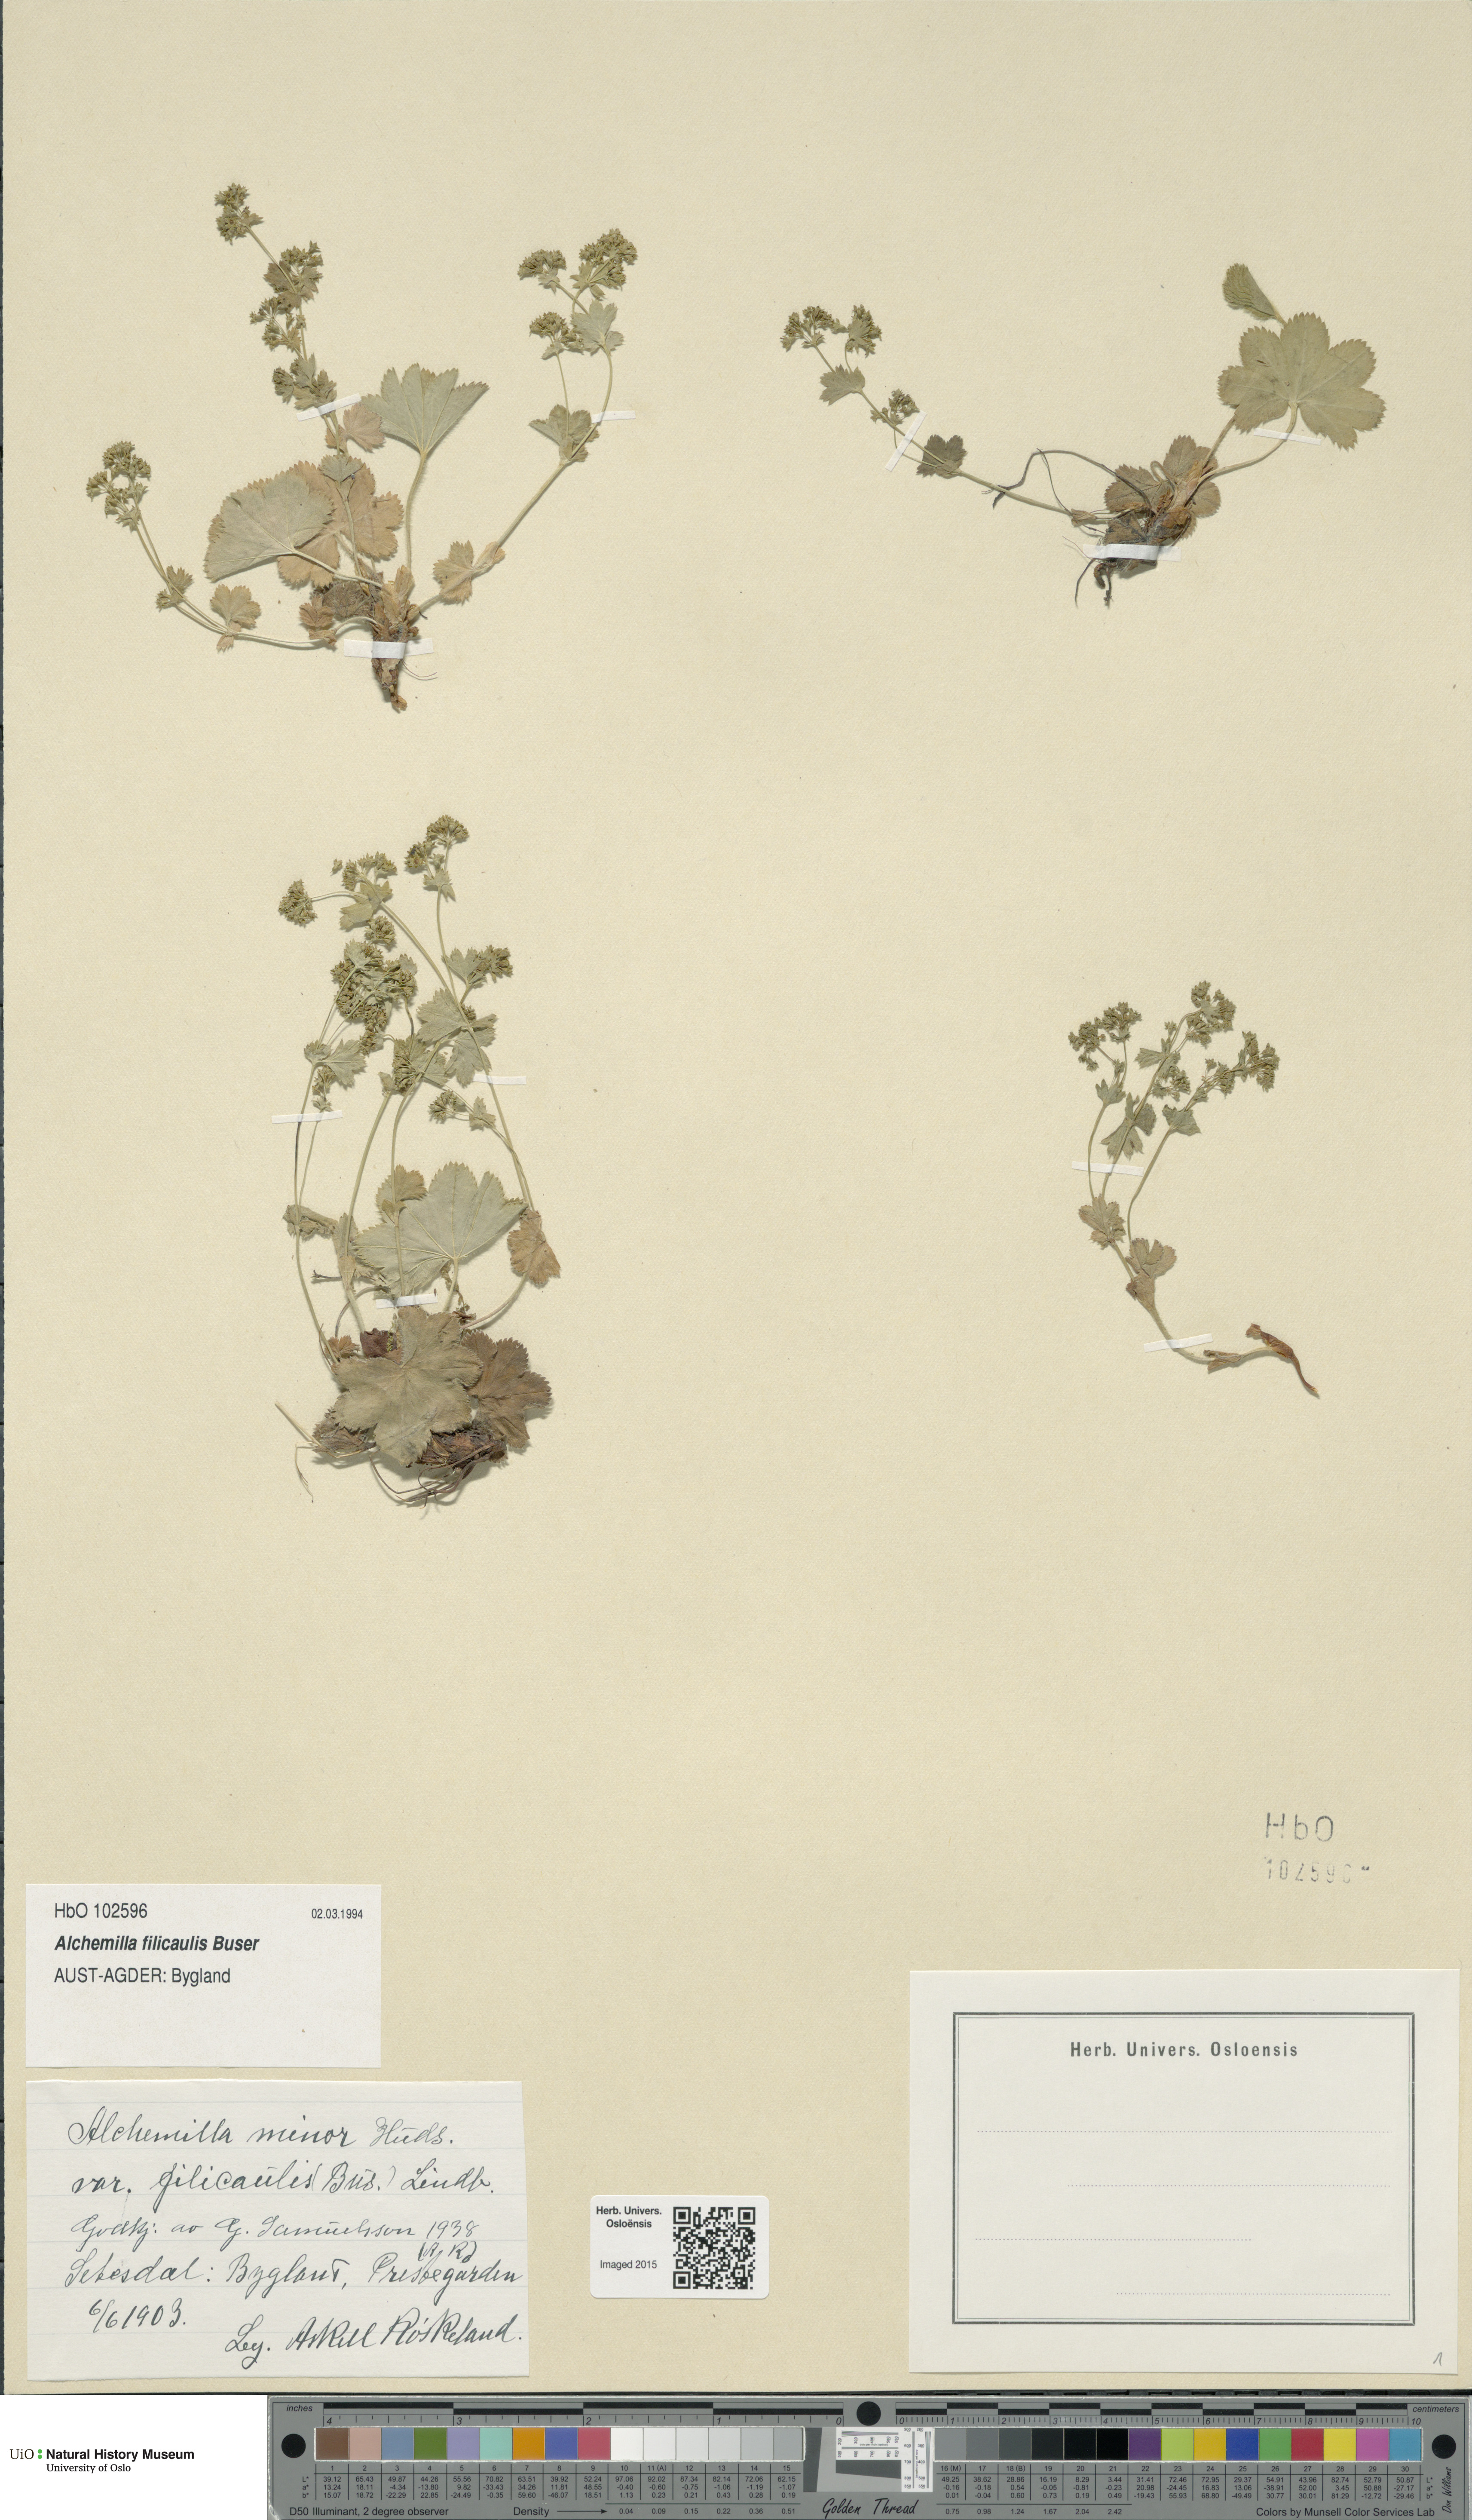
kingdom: Plantae
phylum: Tracheophyta
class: Magnoliopsida
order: Rosales
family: Rosaceae
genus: Alchemilla
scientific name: Alchemilla filicaulis
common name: Hairy lady's-mantle
